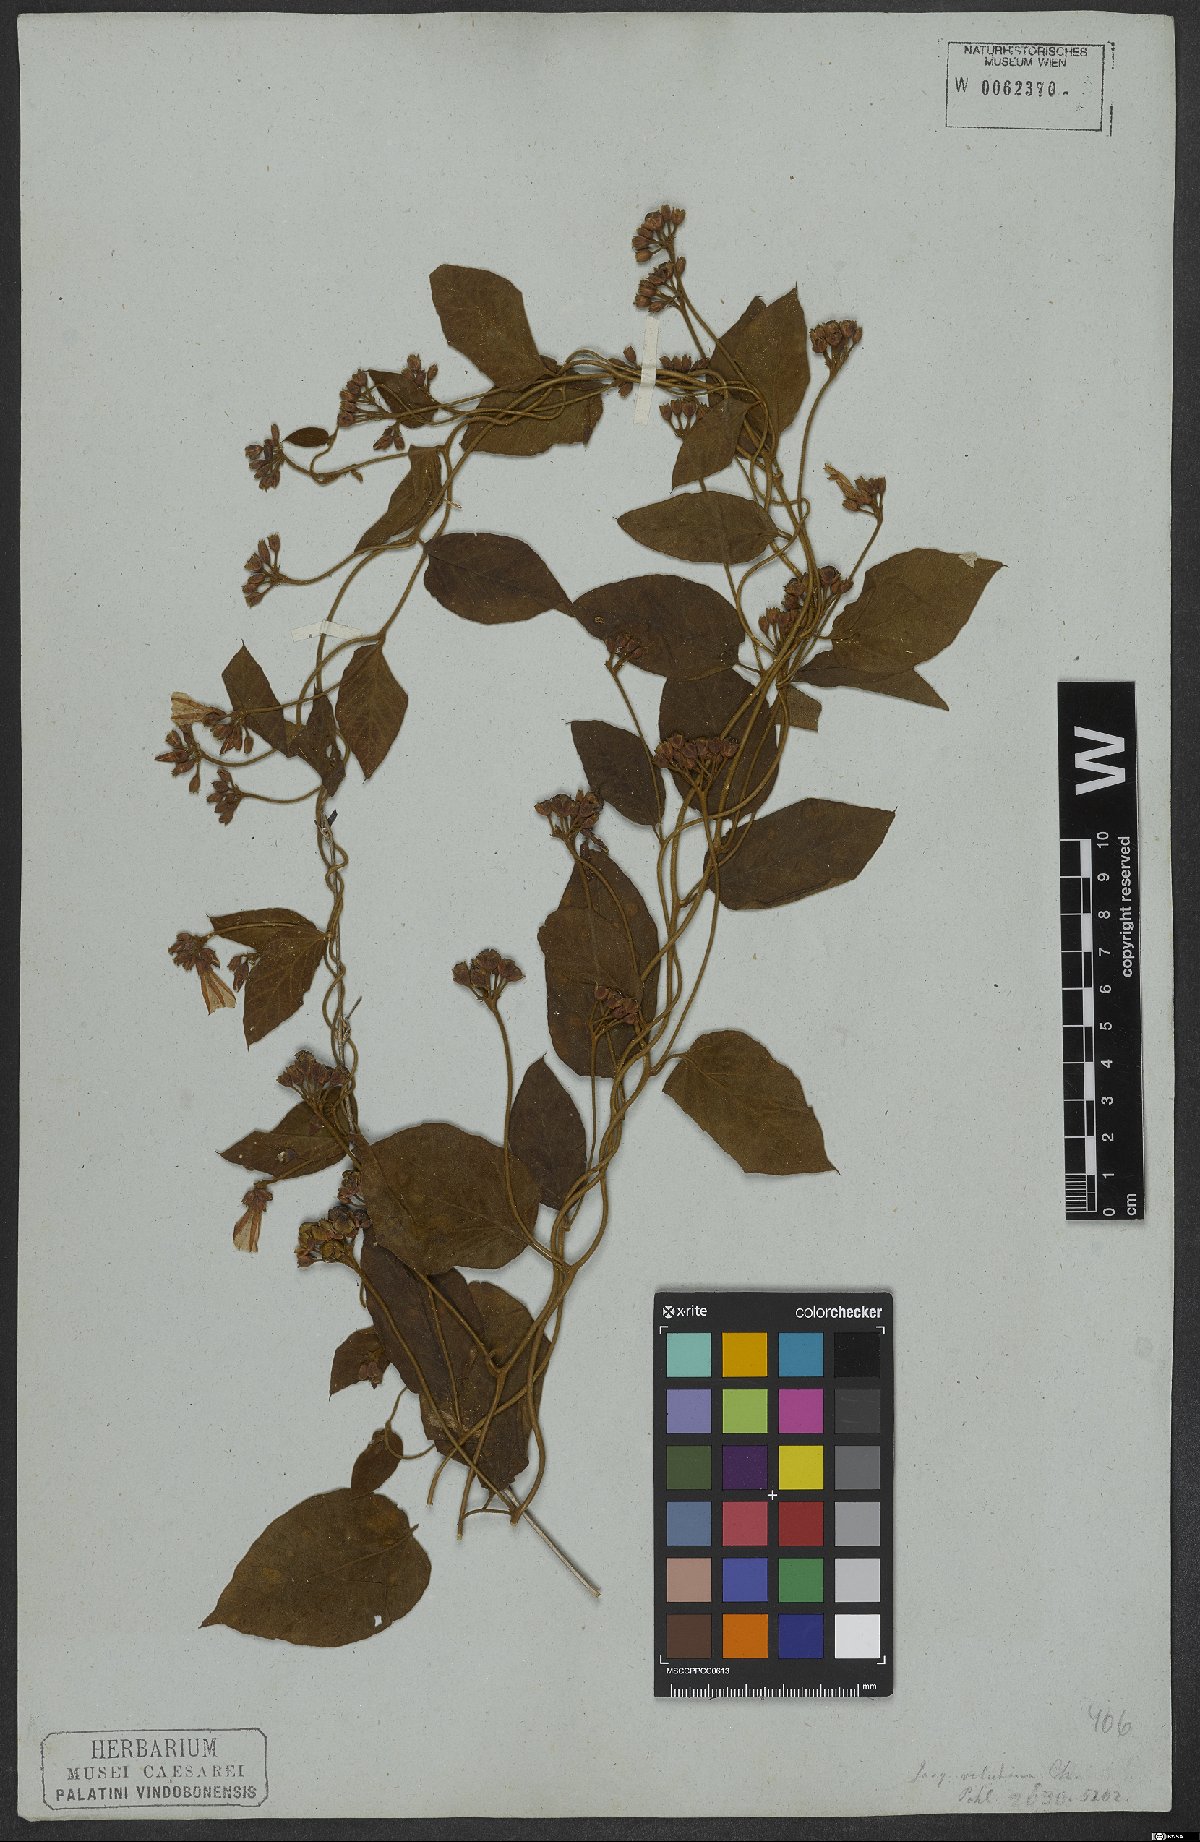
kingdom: Plantae
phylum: Tracheophyta
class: Magnoliopsida
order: Solanales
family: Convolvulaceae
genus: Jacquemontia
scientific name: Jacquemontia velutina
